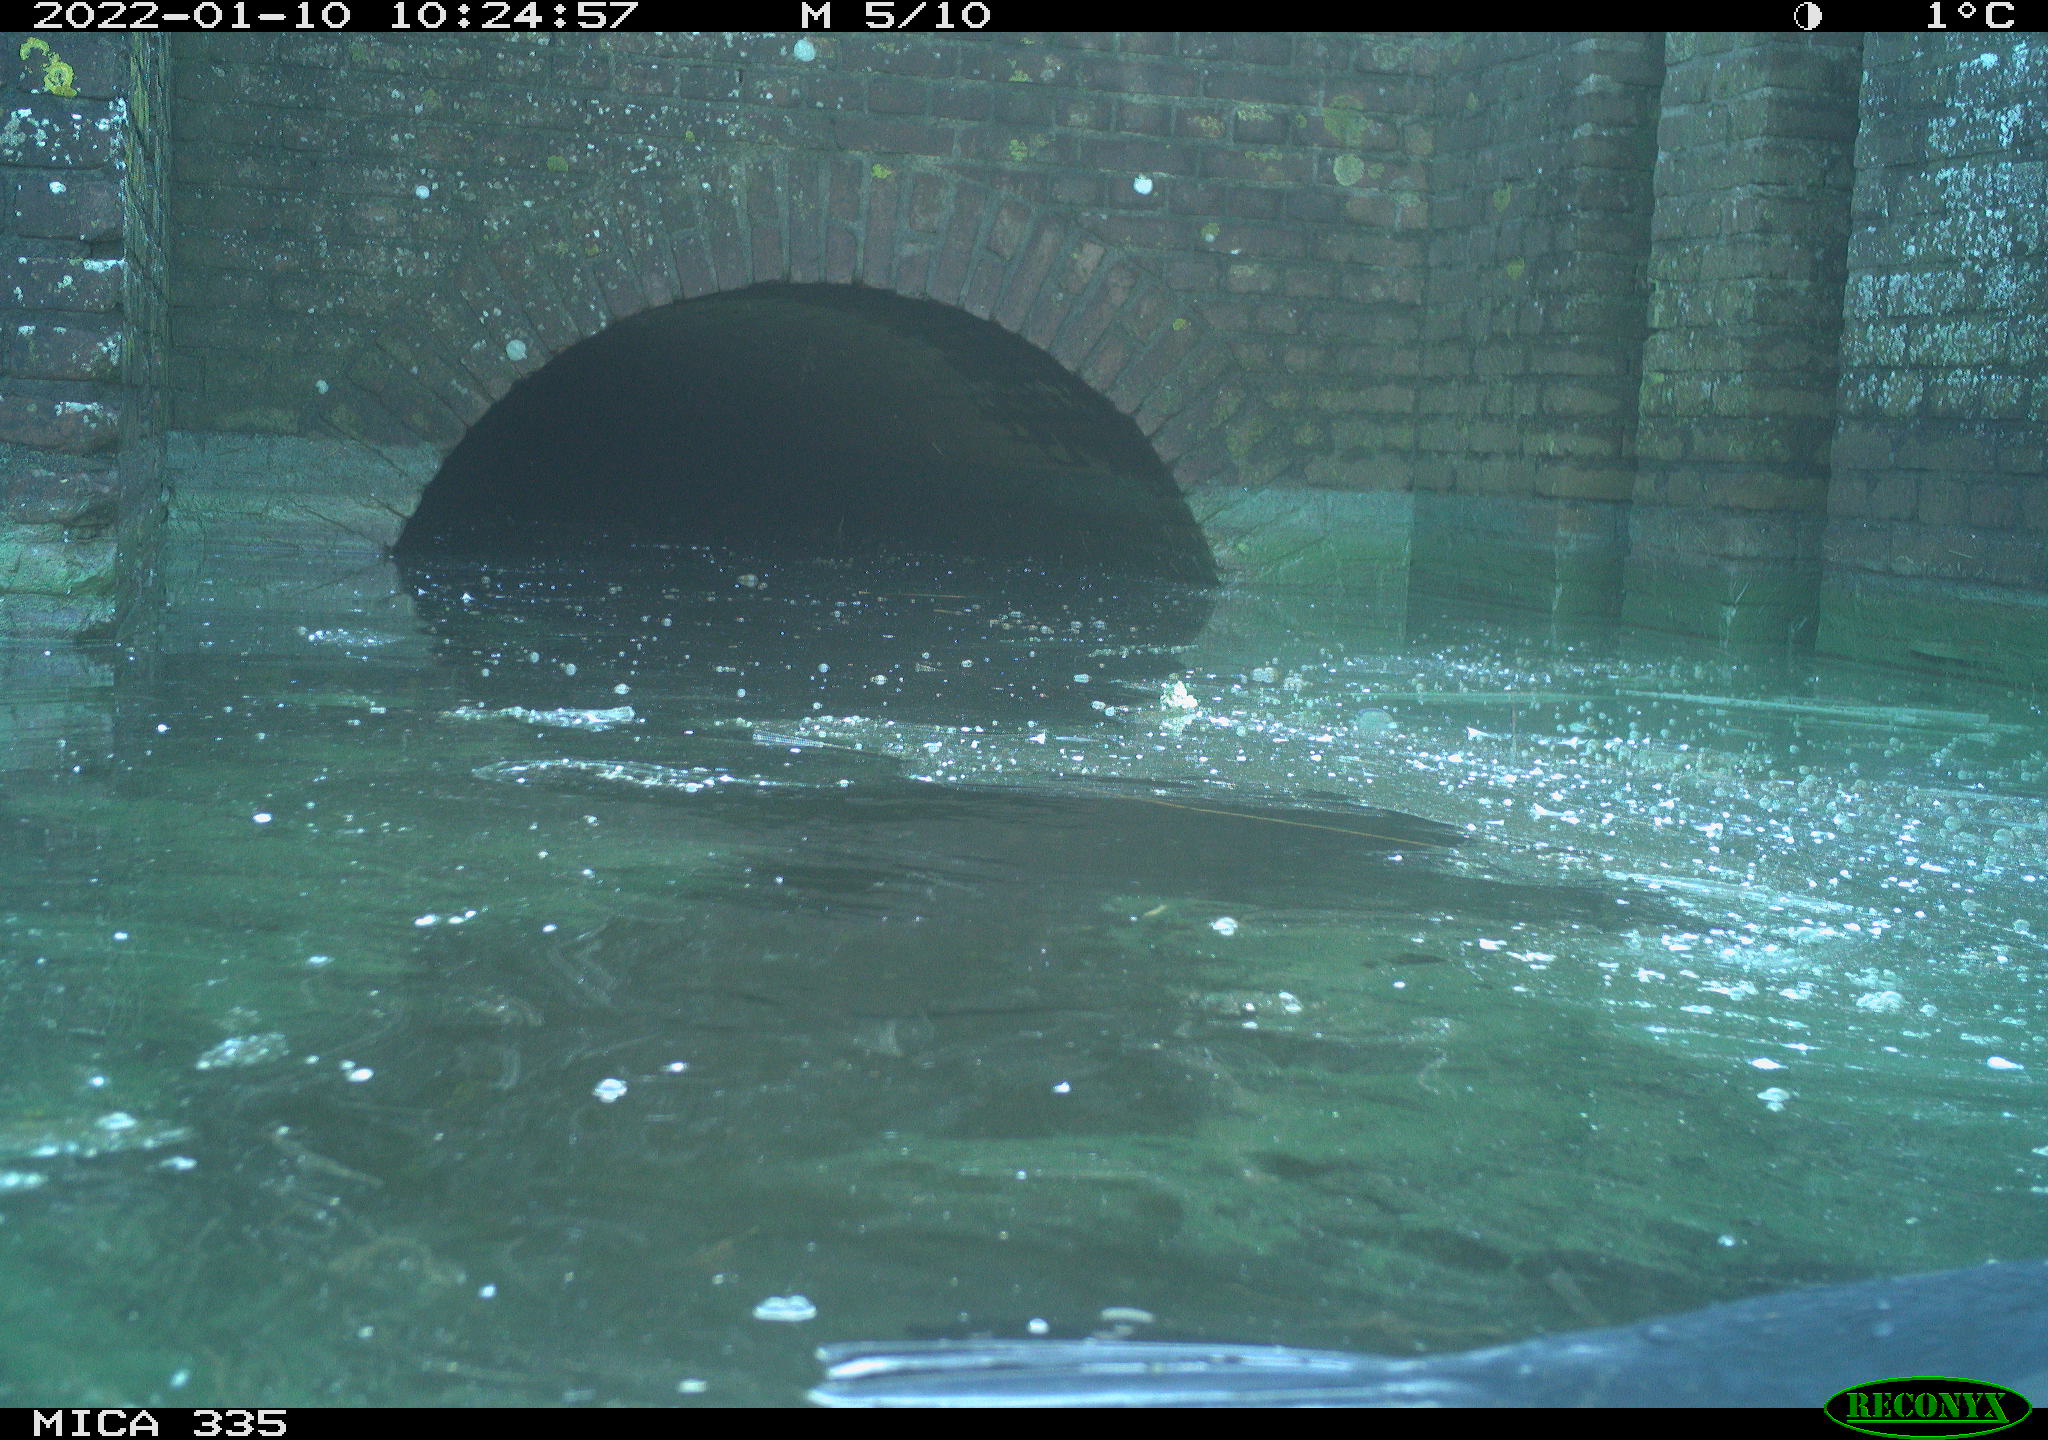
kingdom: Animalia
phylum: Chordata
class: Aves
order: Suliformes
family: Phalacrocoracidae
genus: Phalacrocorax
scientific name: Phalacrocorax carbo
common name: Great cormorant
